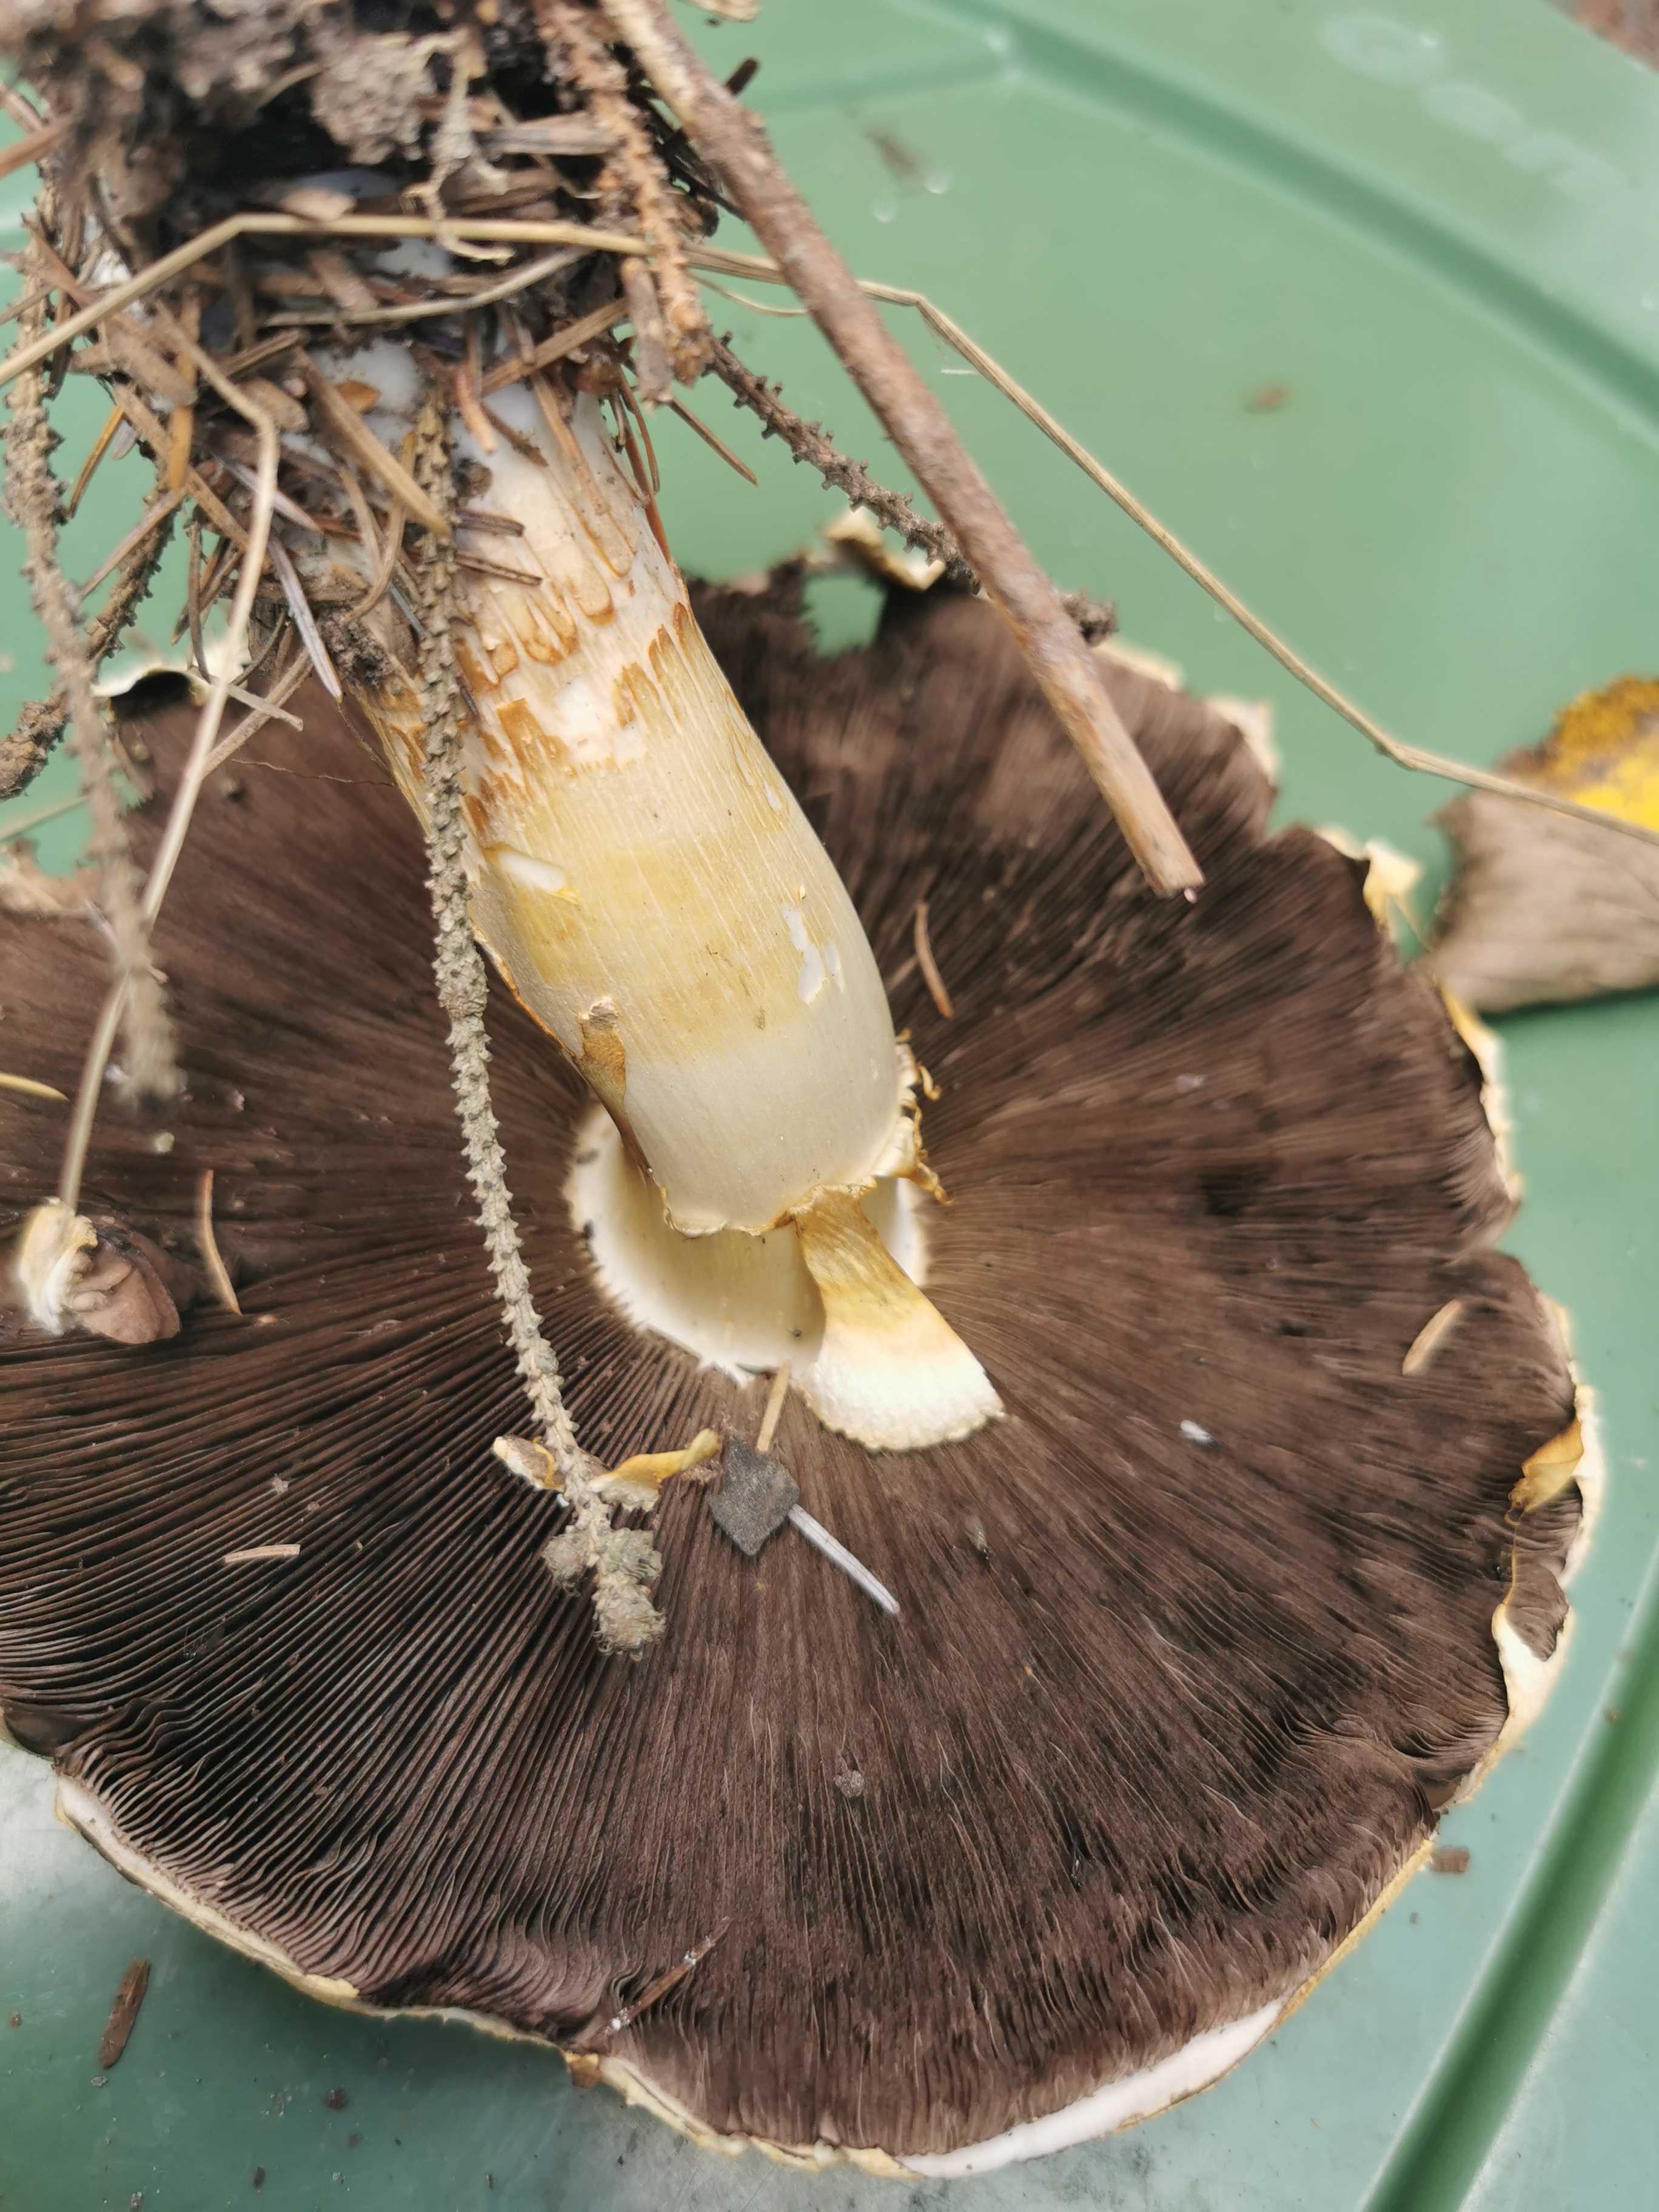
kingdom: Fungi
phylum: Basidiomycota
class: Agaricomycetes
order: Agaricales
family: Agaricaceae
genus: Agaricus
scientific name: Agaricus augustus
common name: prægtig champignon
